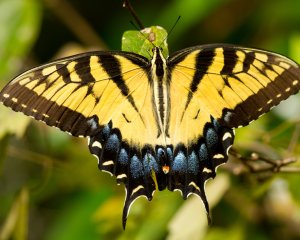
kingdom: Animalia
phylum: Arthropoda
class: Insecta
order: Lepidoptera
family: Papilionidae
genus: Pterourus
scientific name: Pterourus glaucus
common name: Eastern Tiger Swallowtail
